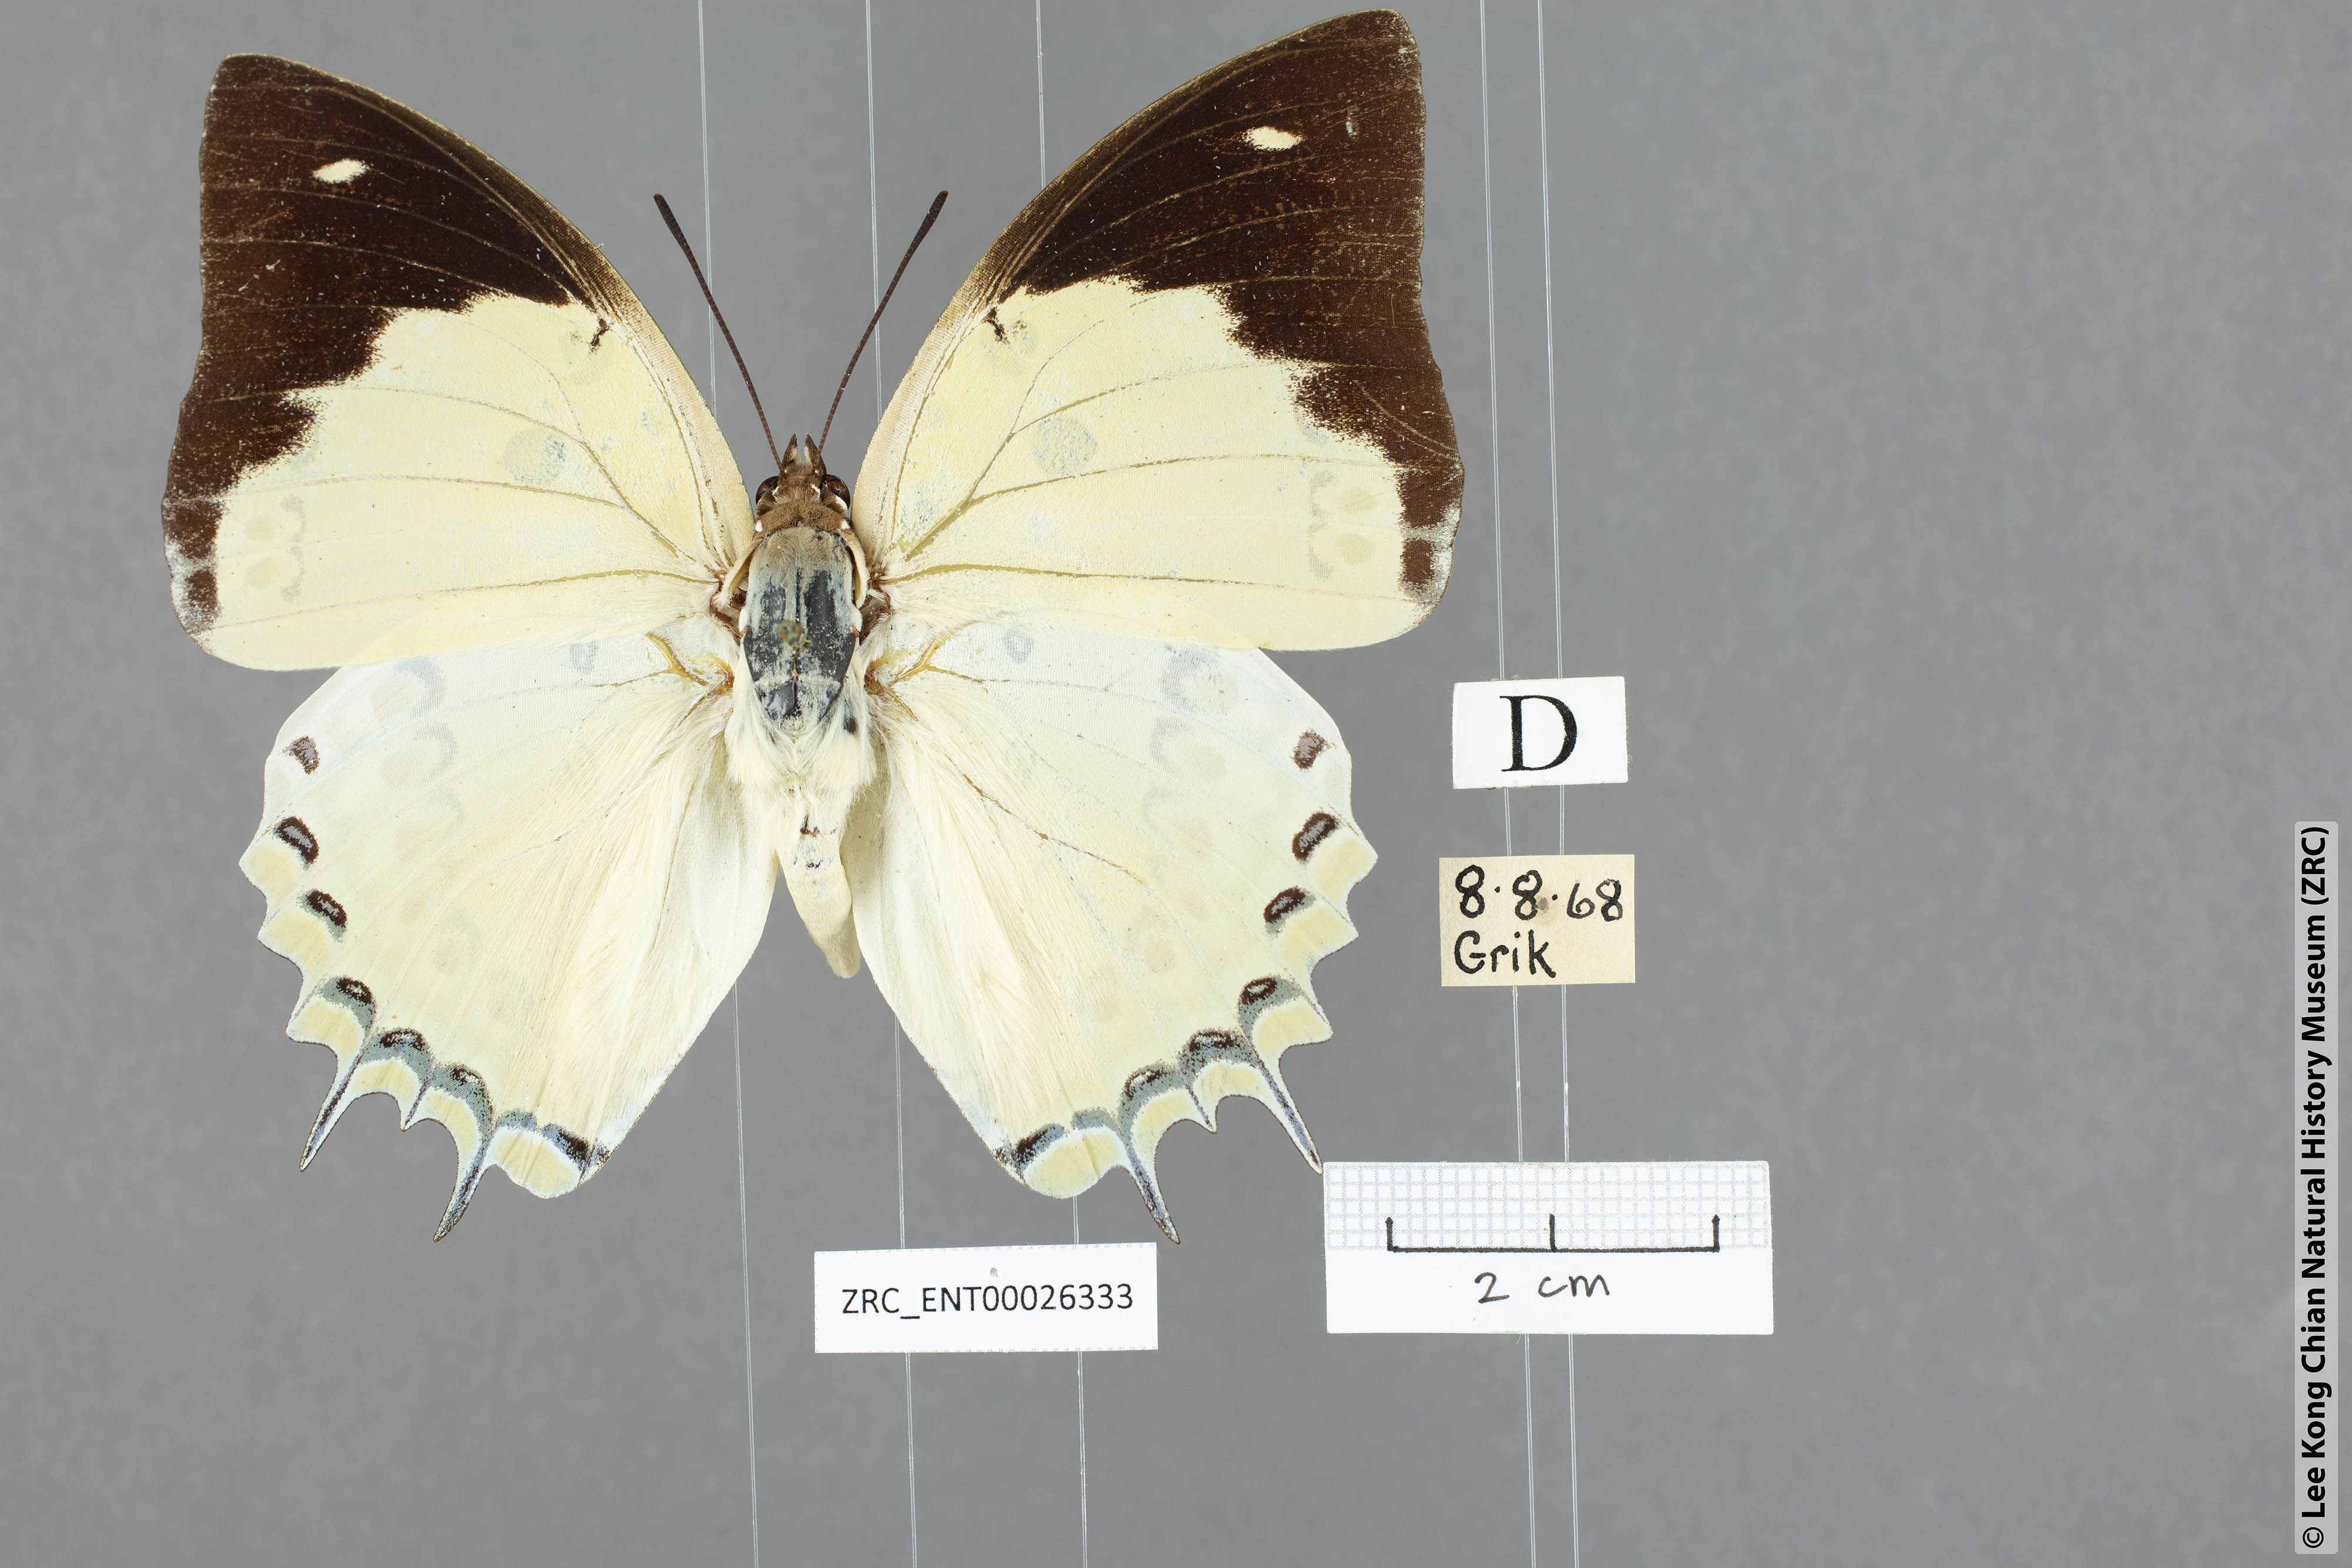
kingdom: Animalia
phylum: Arthropoda
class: Insecta
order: Lepidoptera
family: Nymphalidae
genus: Polyura
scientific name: Polyura delphis
